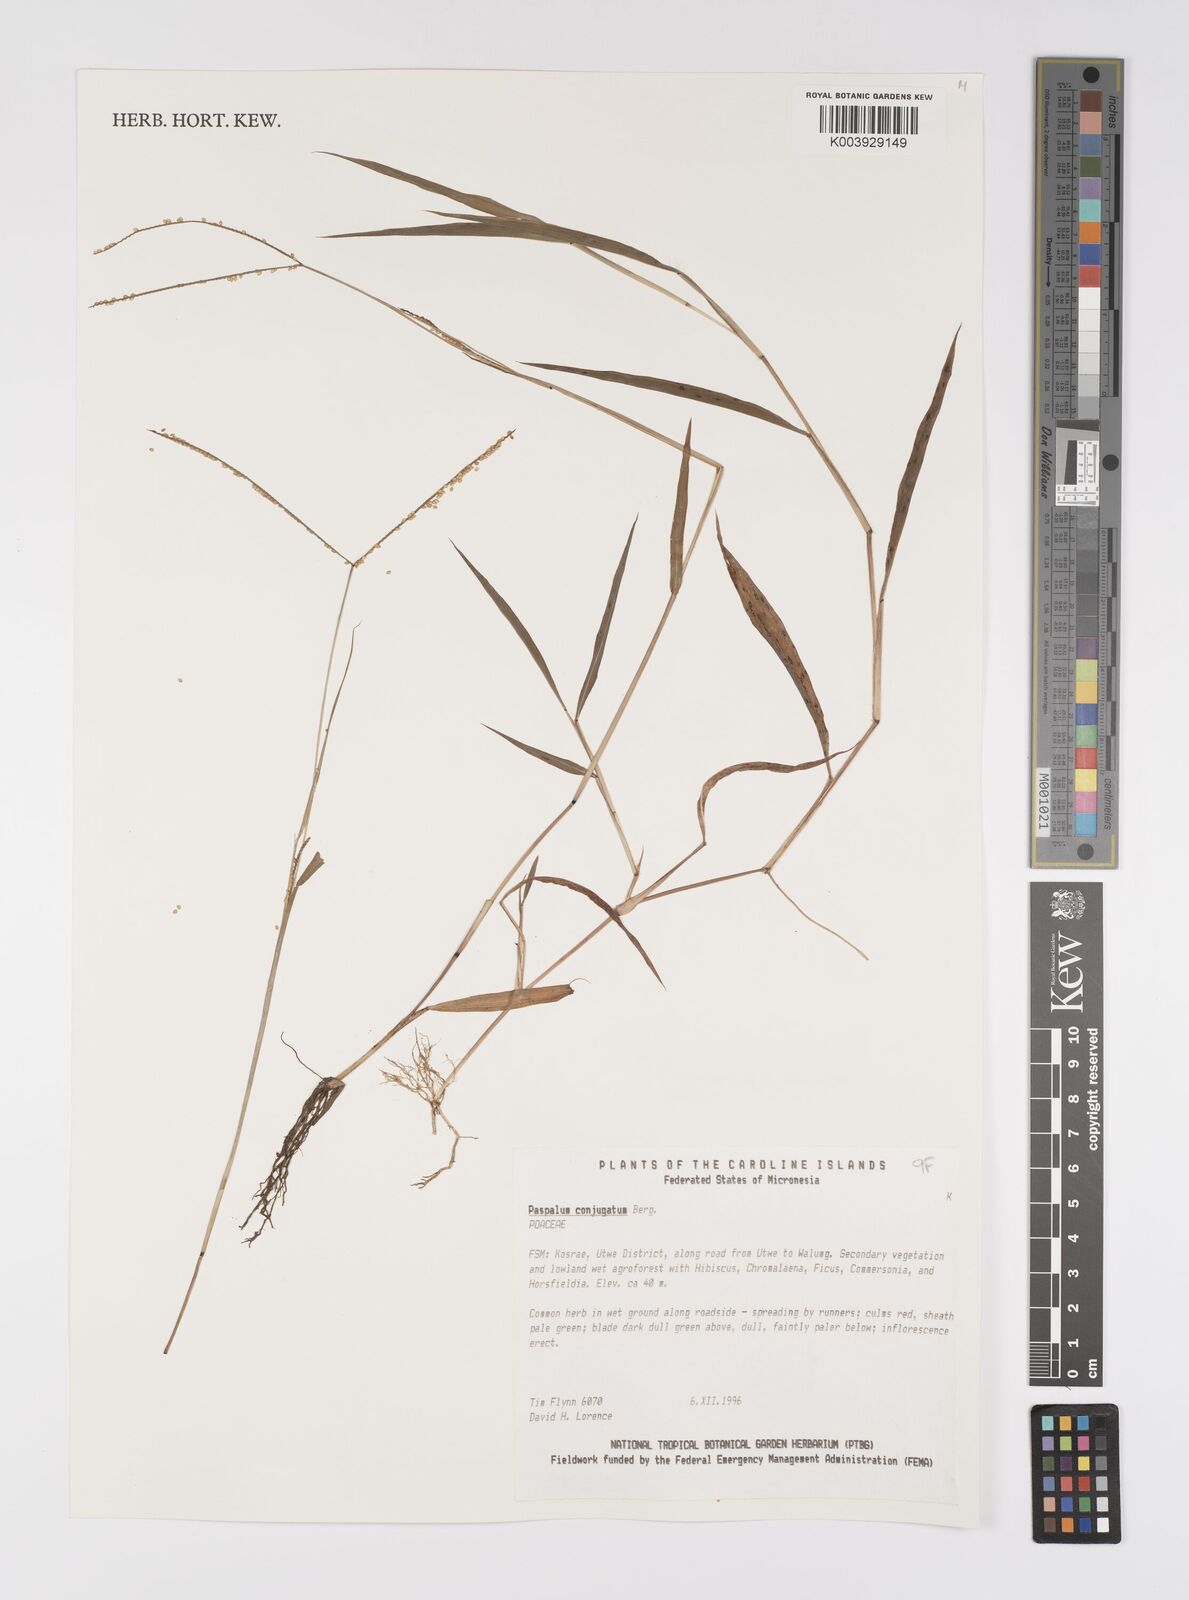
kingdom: Plantae
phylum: Tracheophyta
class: Liliopsida
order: Poales
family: Poaceae
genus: Paspalum
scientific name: Paspalum conjugatum
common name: Hilograss
